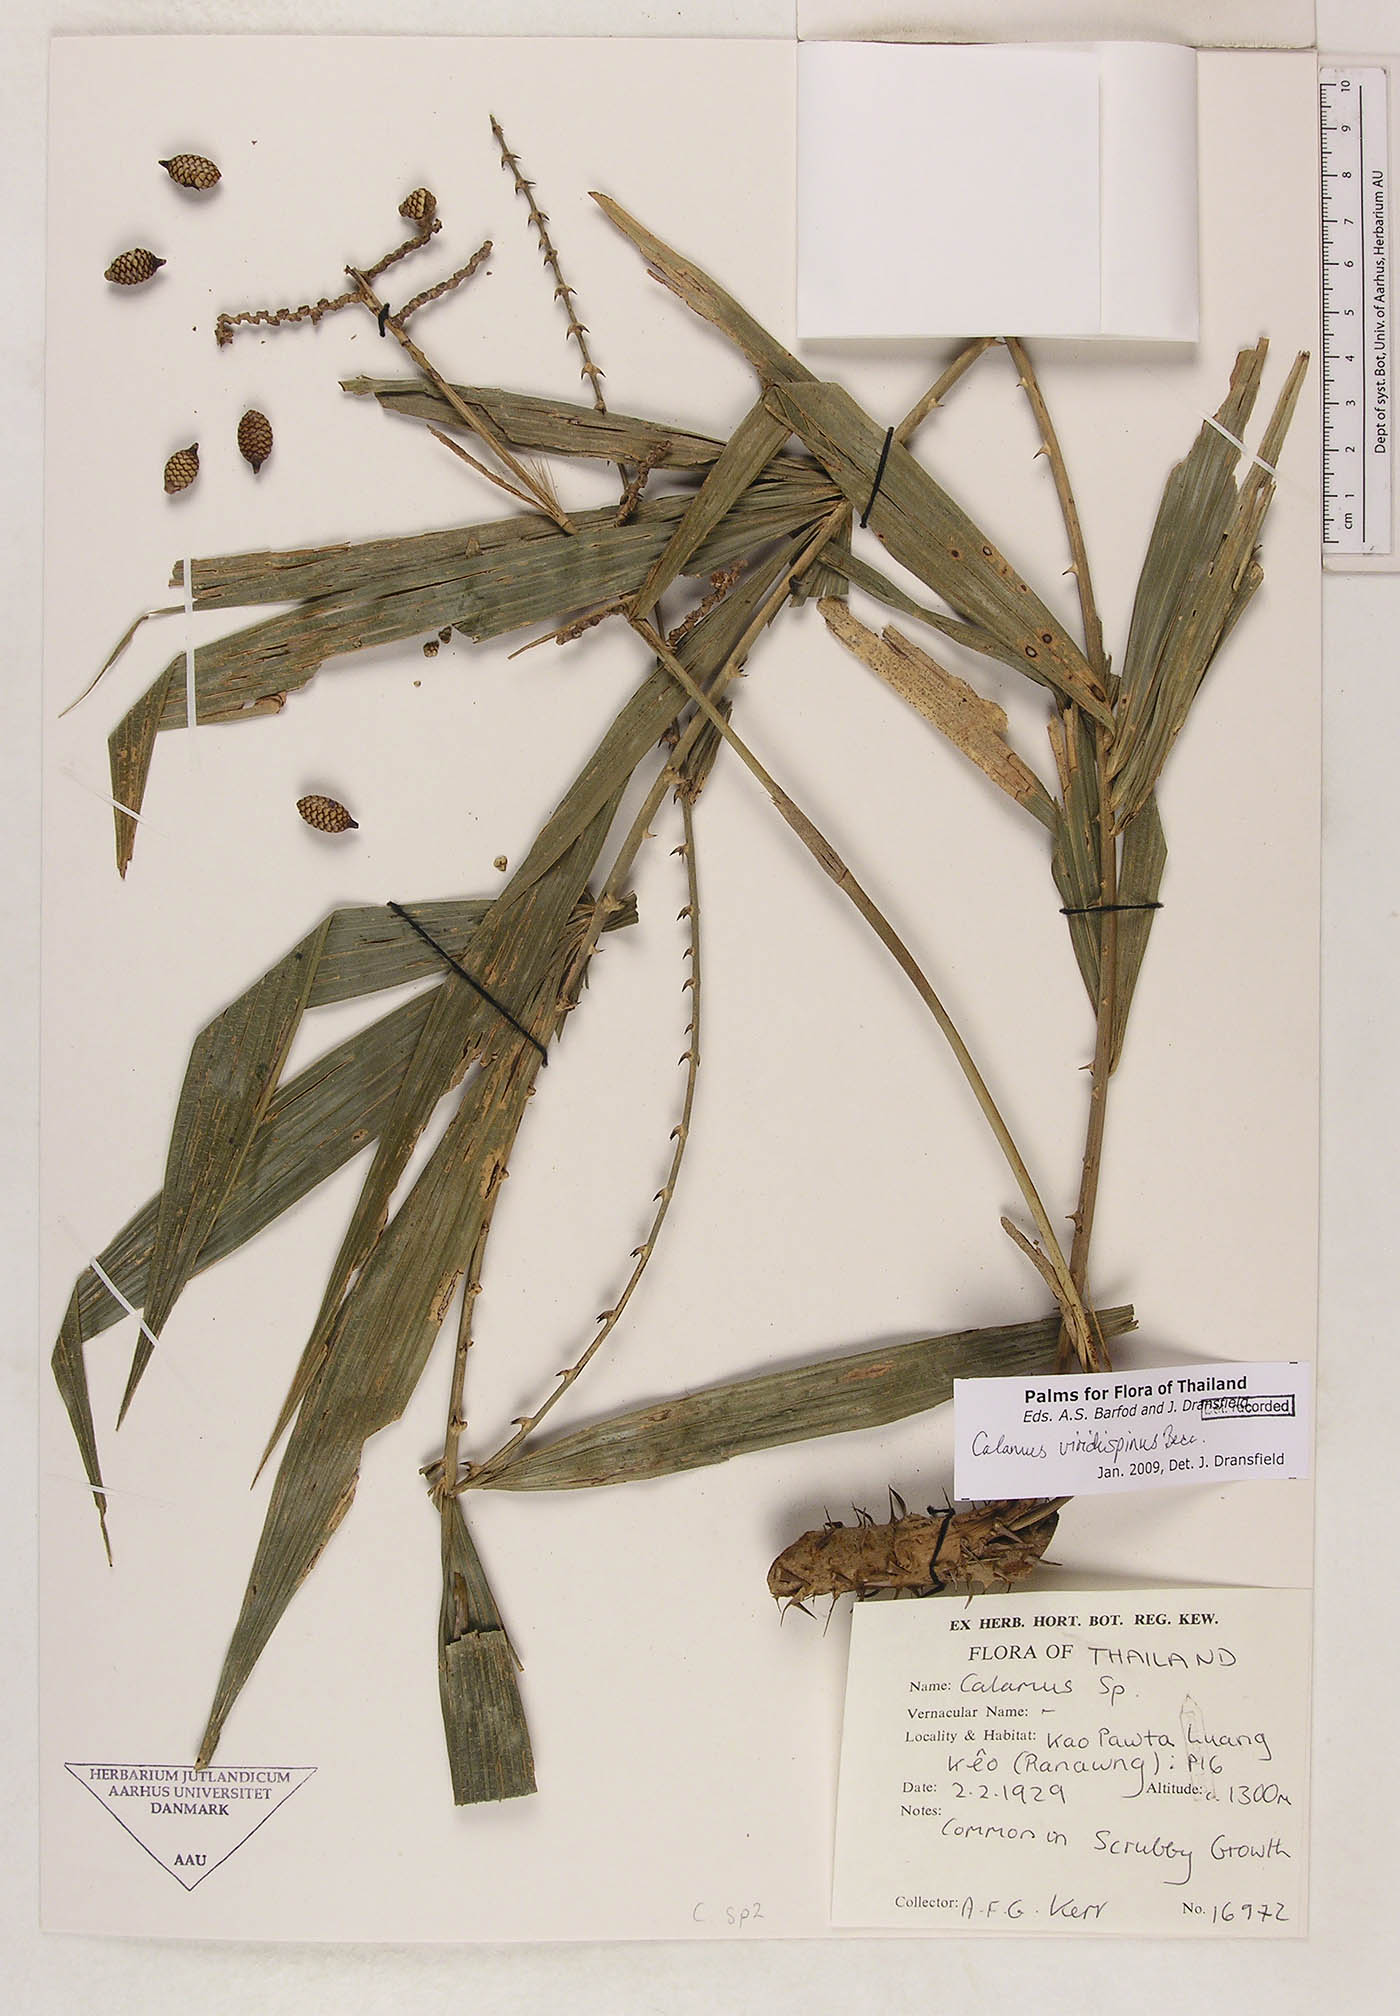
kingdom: Plantae
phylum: Tracheophyta
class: Liliopsida
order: Arecales
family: Arecaceae
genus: Calamus
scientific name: Calamus helferianus
